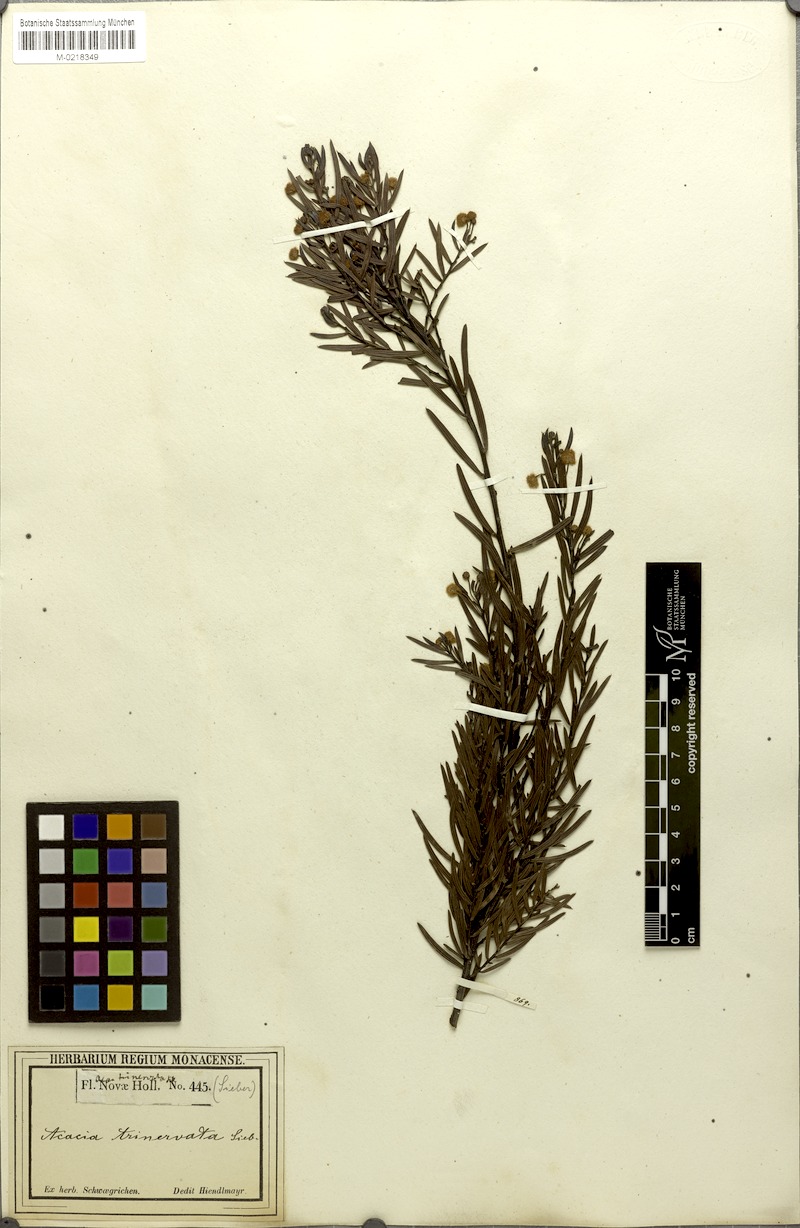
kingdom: Plantae
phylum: Tracheophyta
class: Magnoliopsida
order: Fabales
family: Fabaceae
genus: Acacia
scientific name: Acacia trinervata
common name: Three-nerve wattle
